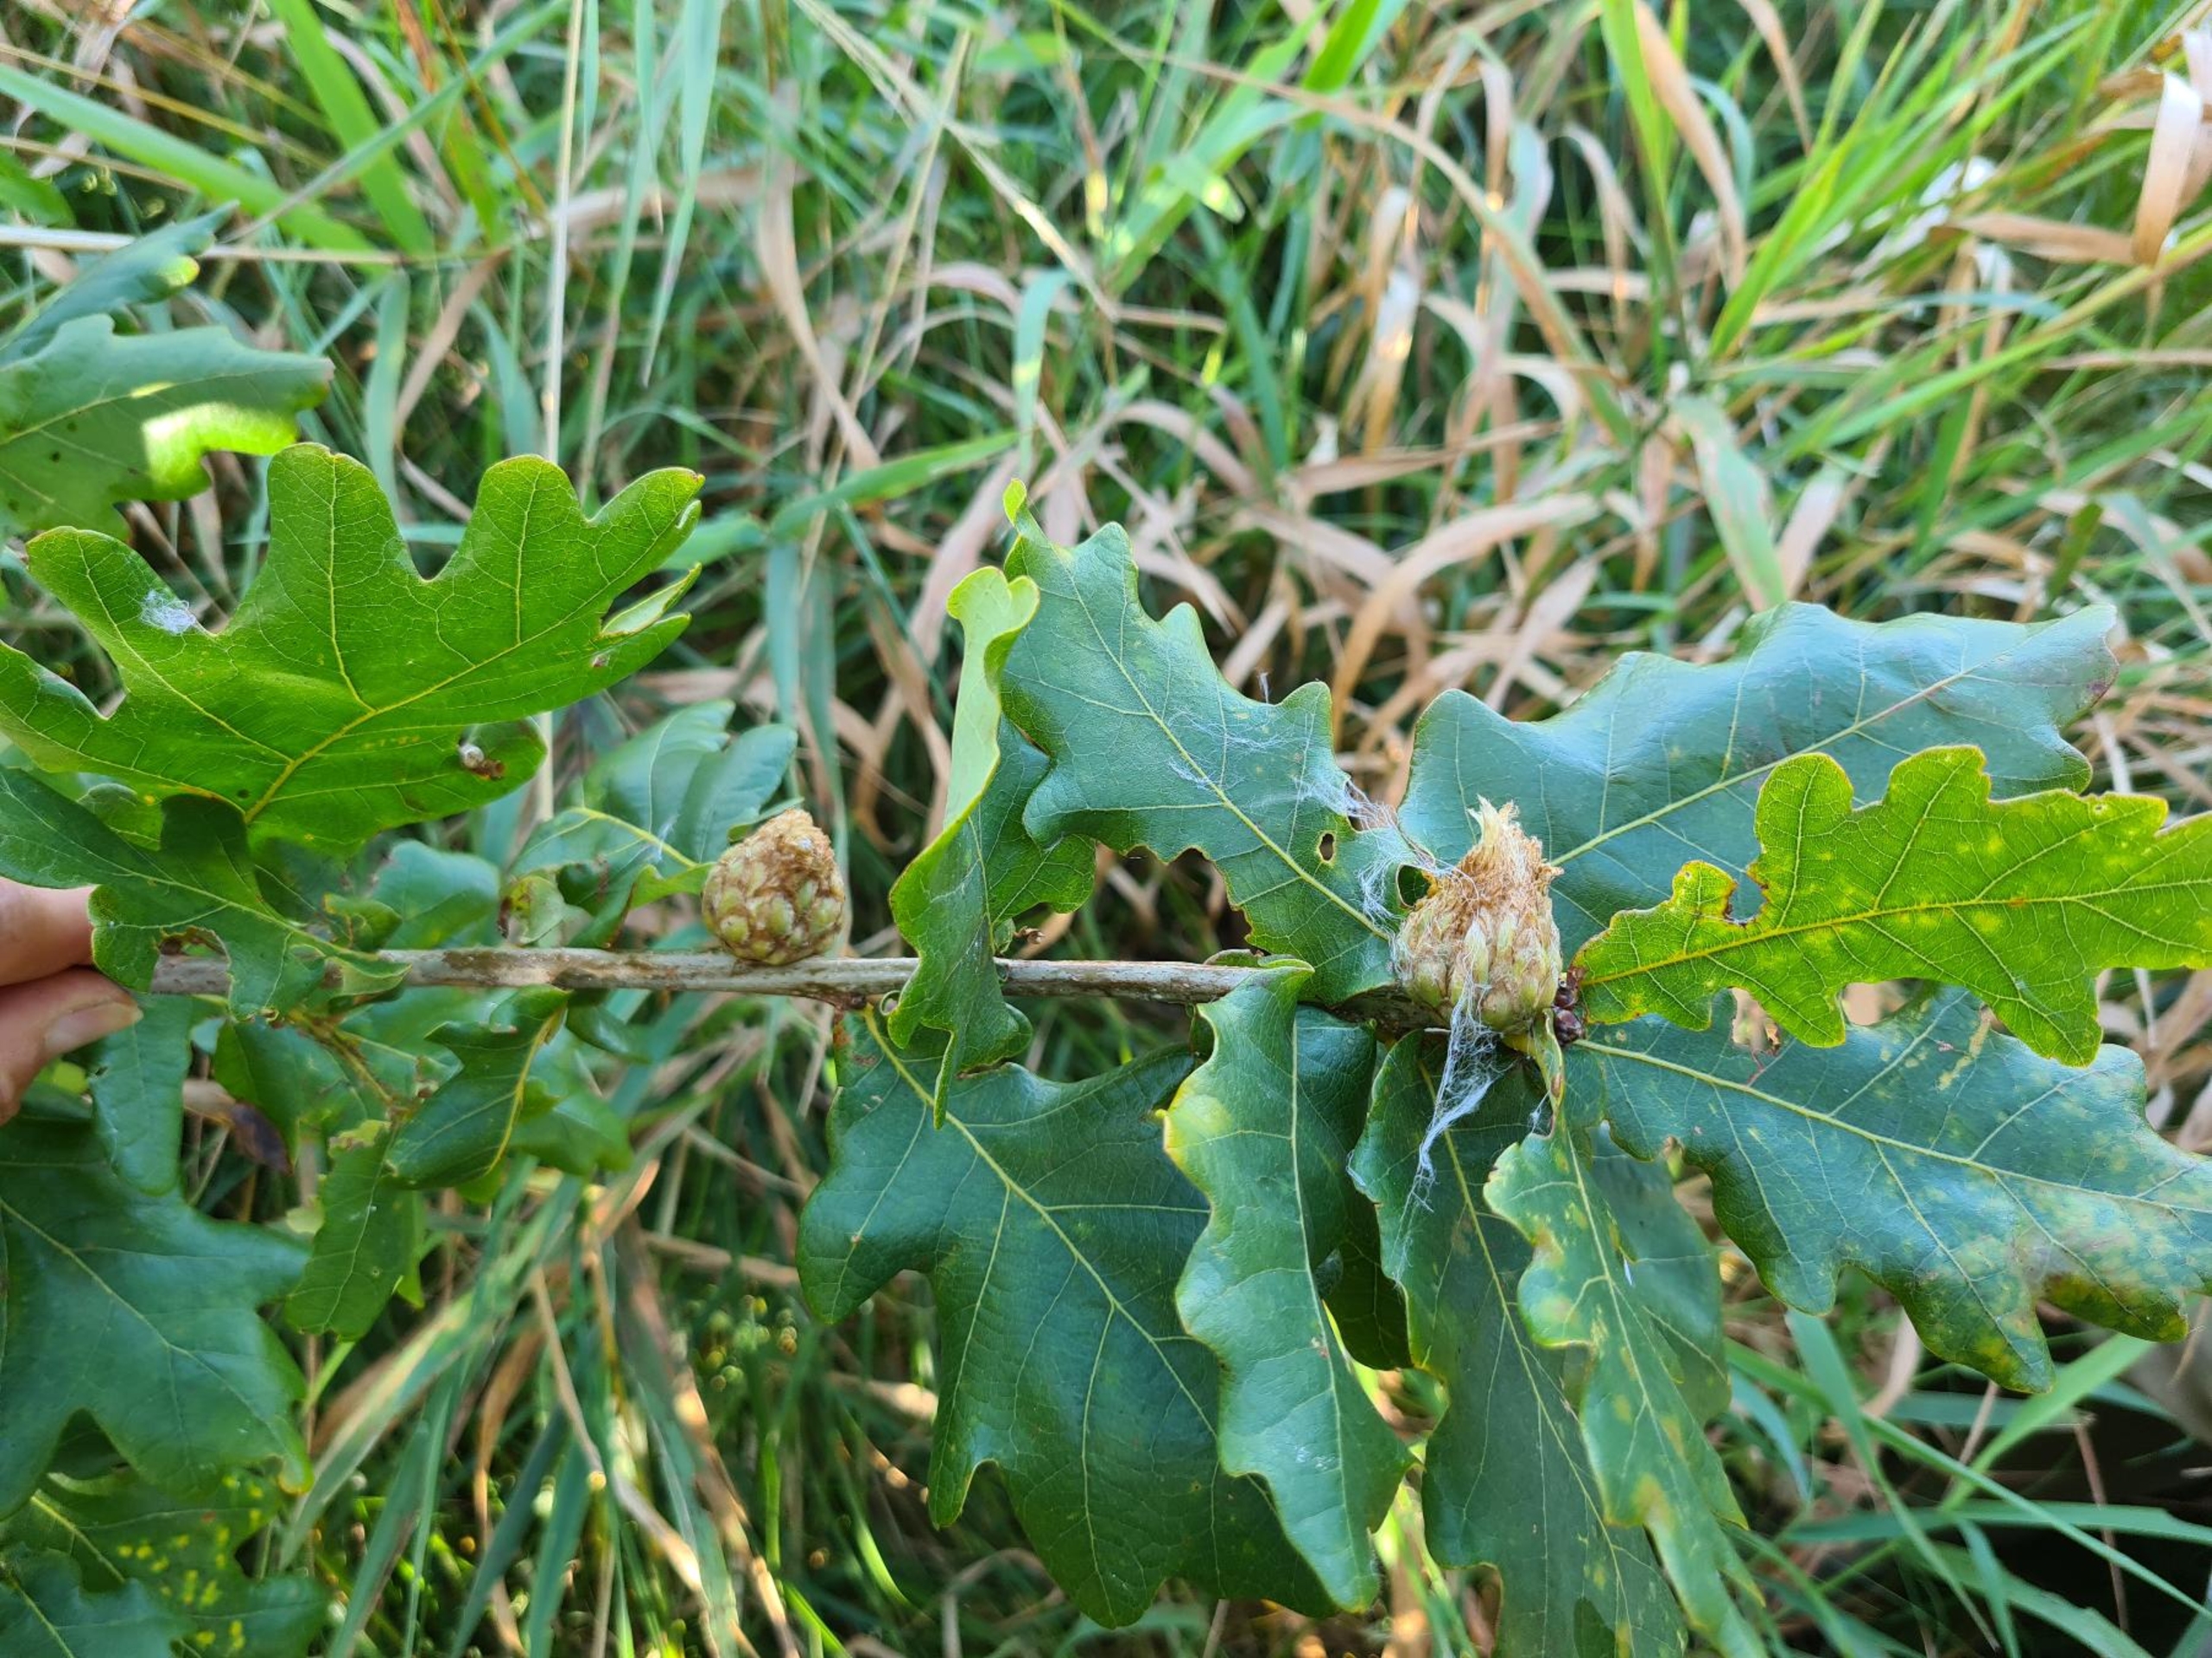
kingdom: Animalia
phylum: Arthropoda
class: Insecta
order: Hymenoptera
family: Cynipidae
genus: Andricus
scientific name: Andricus foecundatrix
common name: Artiskokgalhveps
